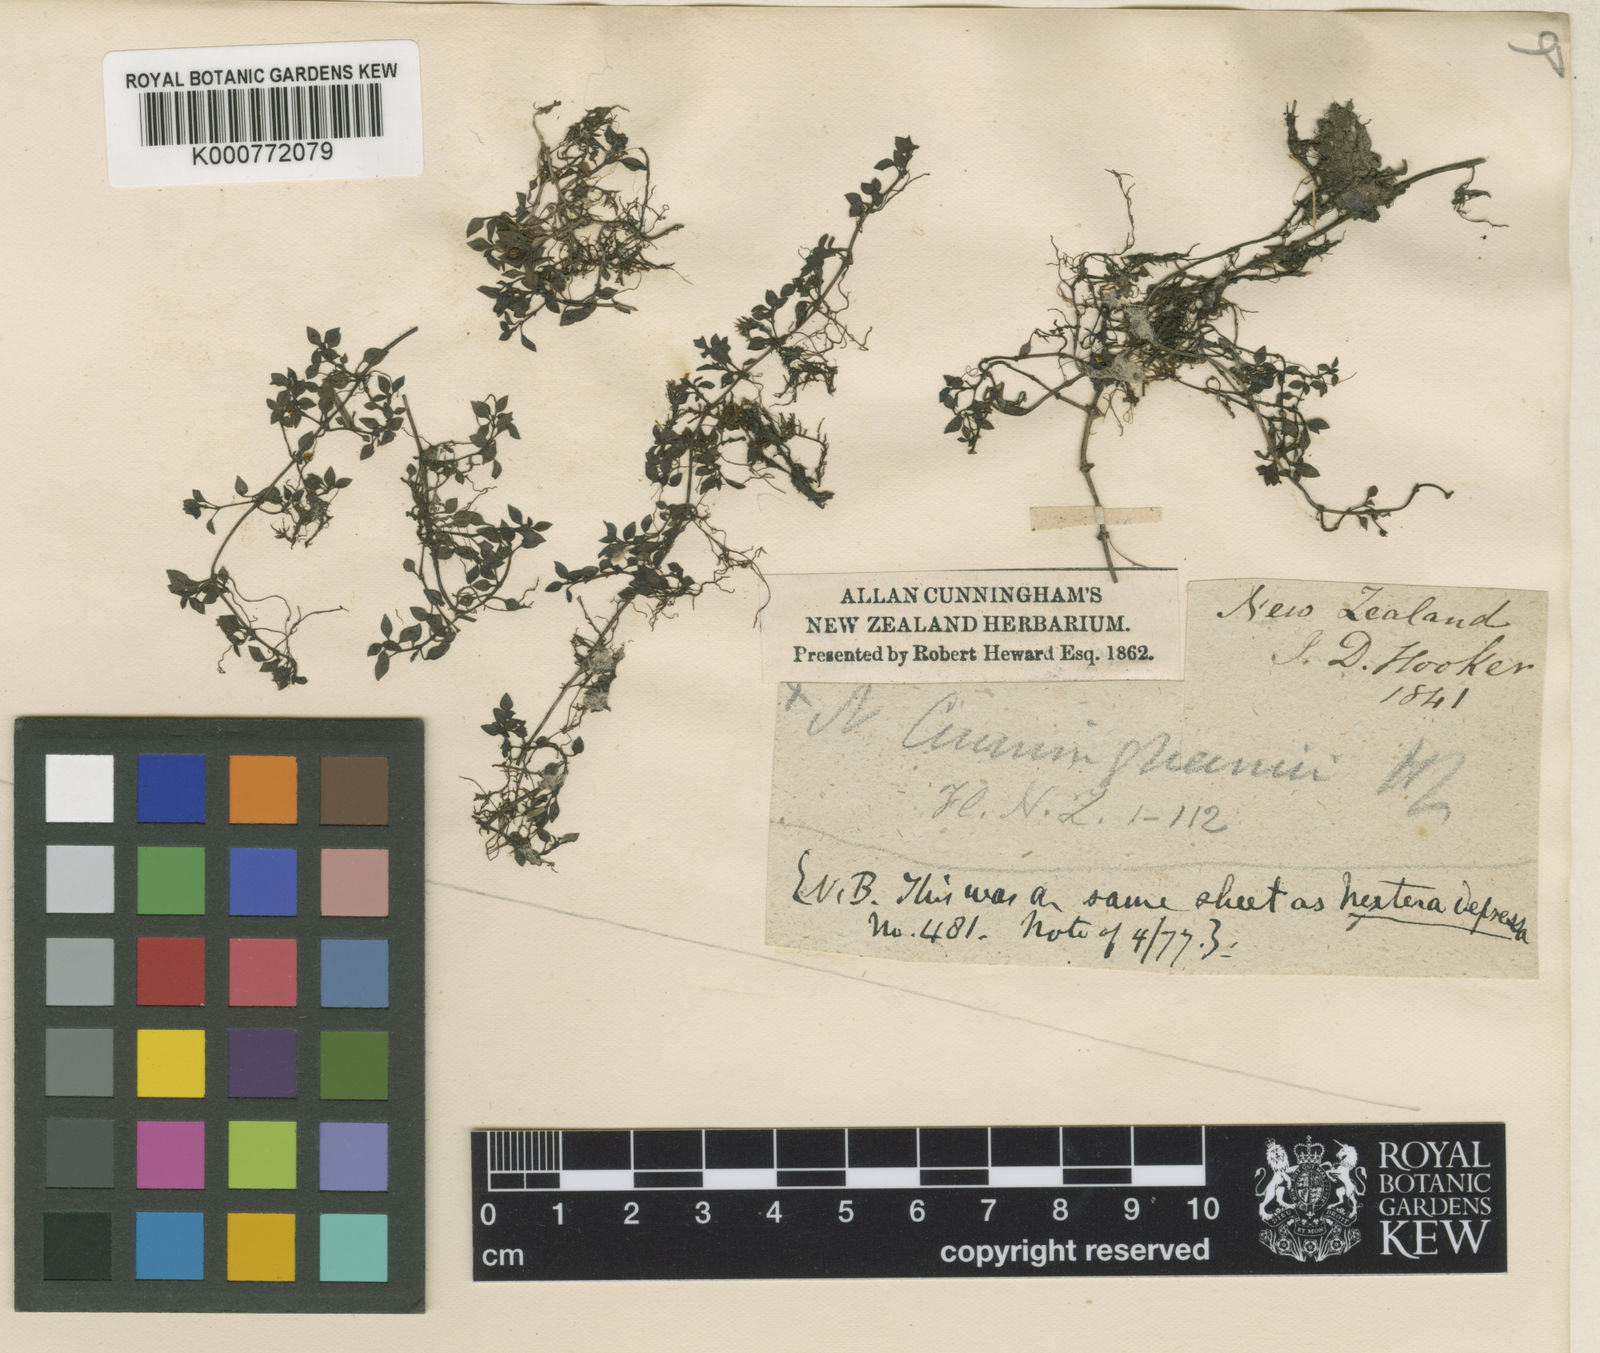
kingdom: Plantae
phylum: Tracheophyta
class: Magnoliopsida
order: Gentianales
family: Rubiaceae
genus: Nertera
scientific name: Nertera cunninghamii
